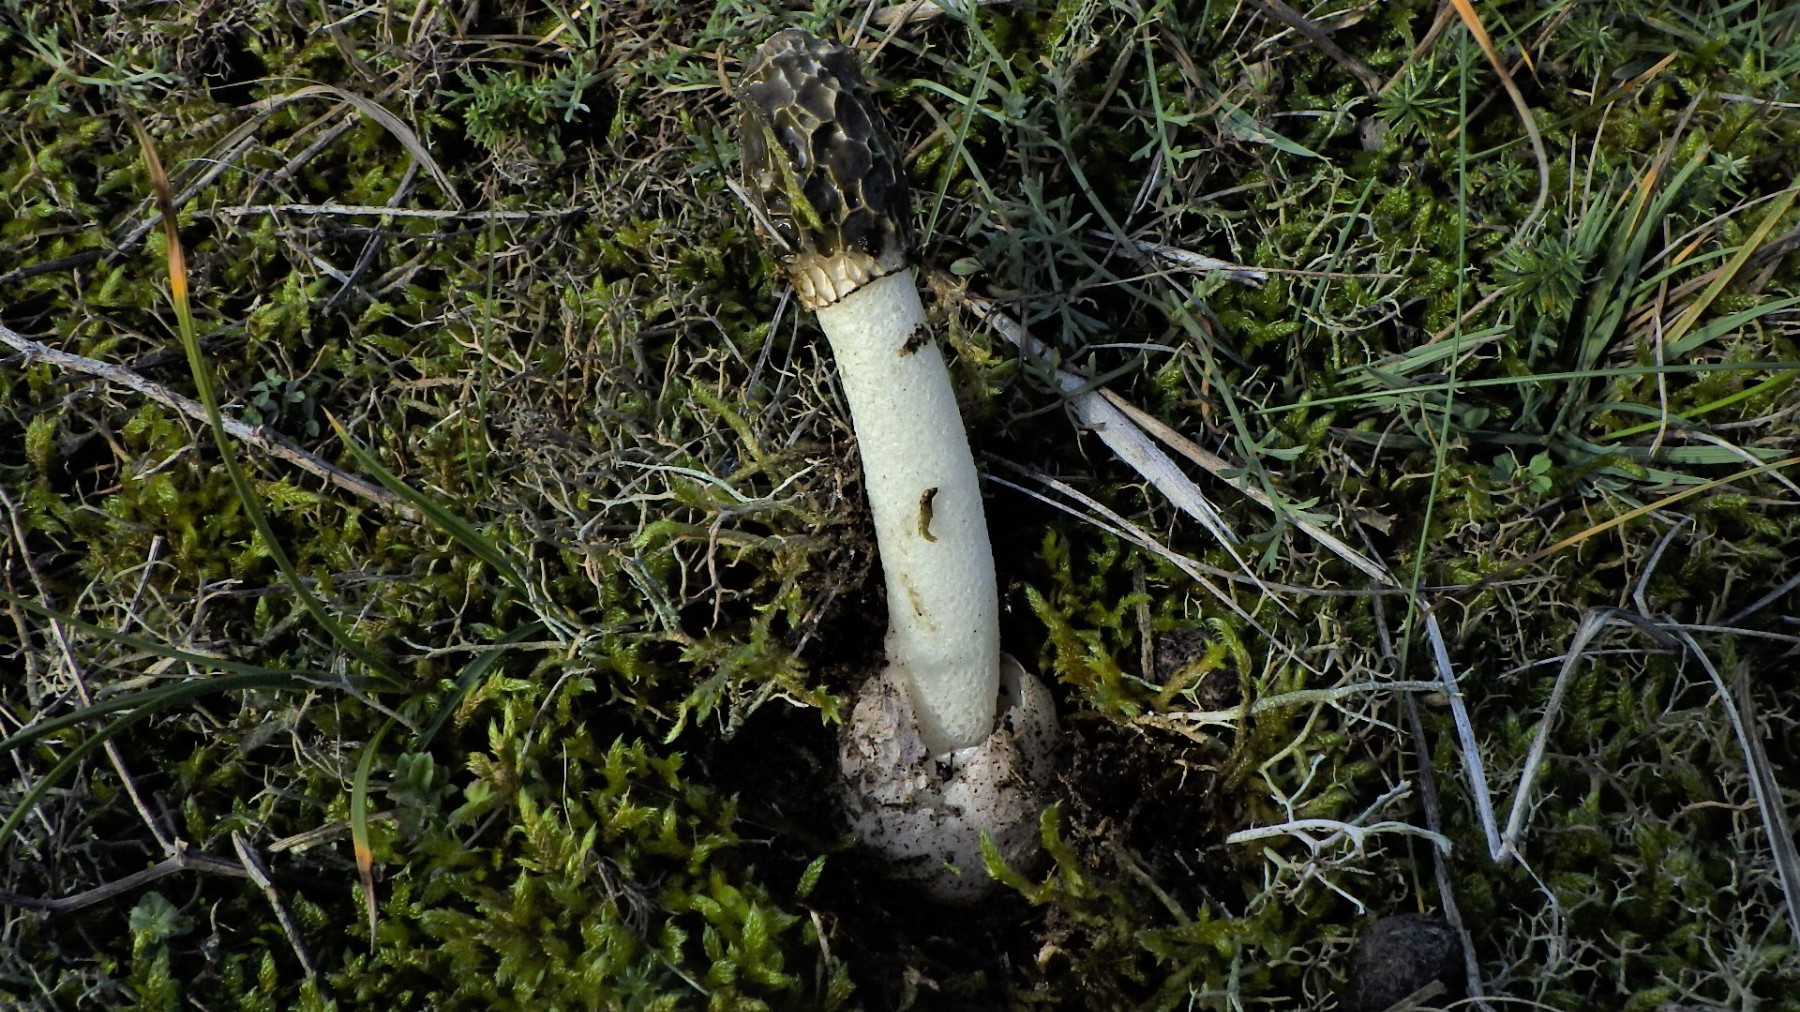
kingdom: Fungi
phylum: Basidiomycota
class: Agaricomycetes
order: Phallales
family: Phallaceae
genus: Phallus
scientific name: Phallus hadriani
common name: sand-stinksvamp
